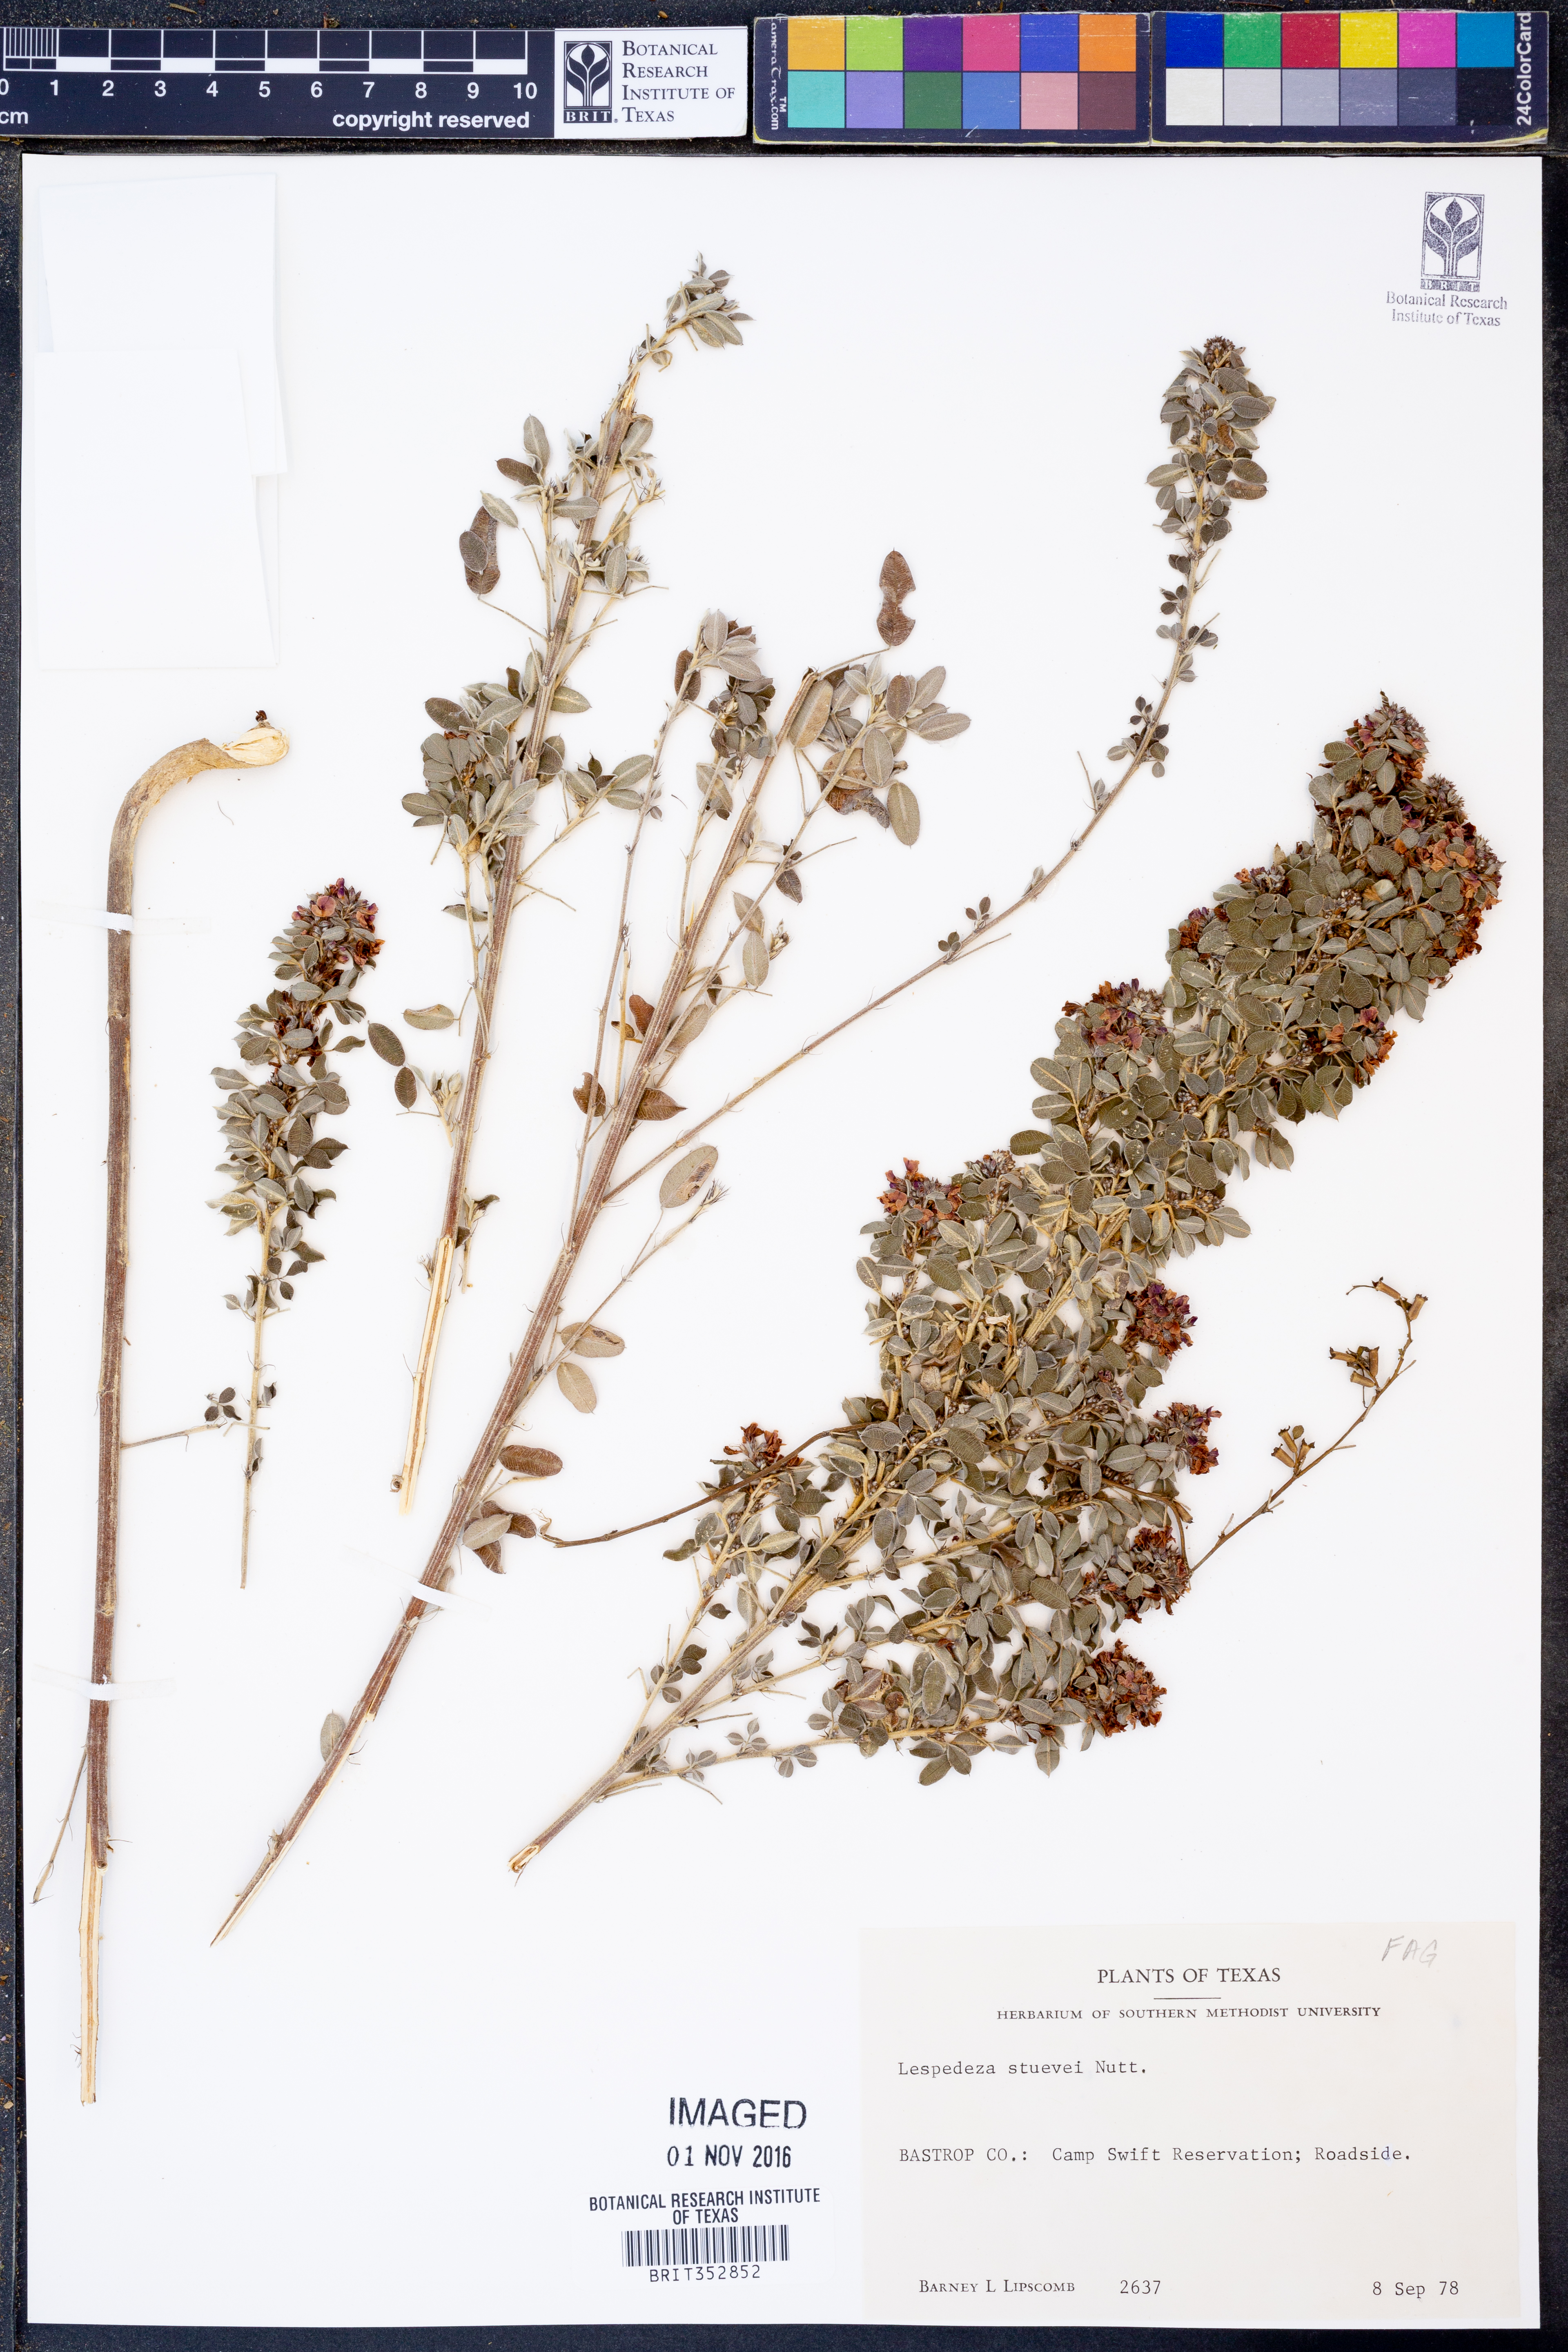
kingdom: Plantae
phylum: Tracheophyta
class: Magnoliopsida
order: Fabales
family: Fabaceae
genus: Lespedeza
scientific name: Lespedeza stuevei
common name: Tall bush-clover
